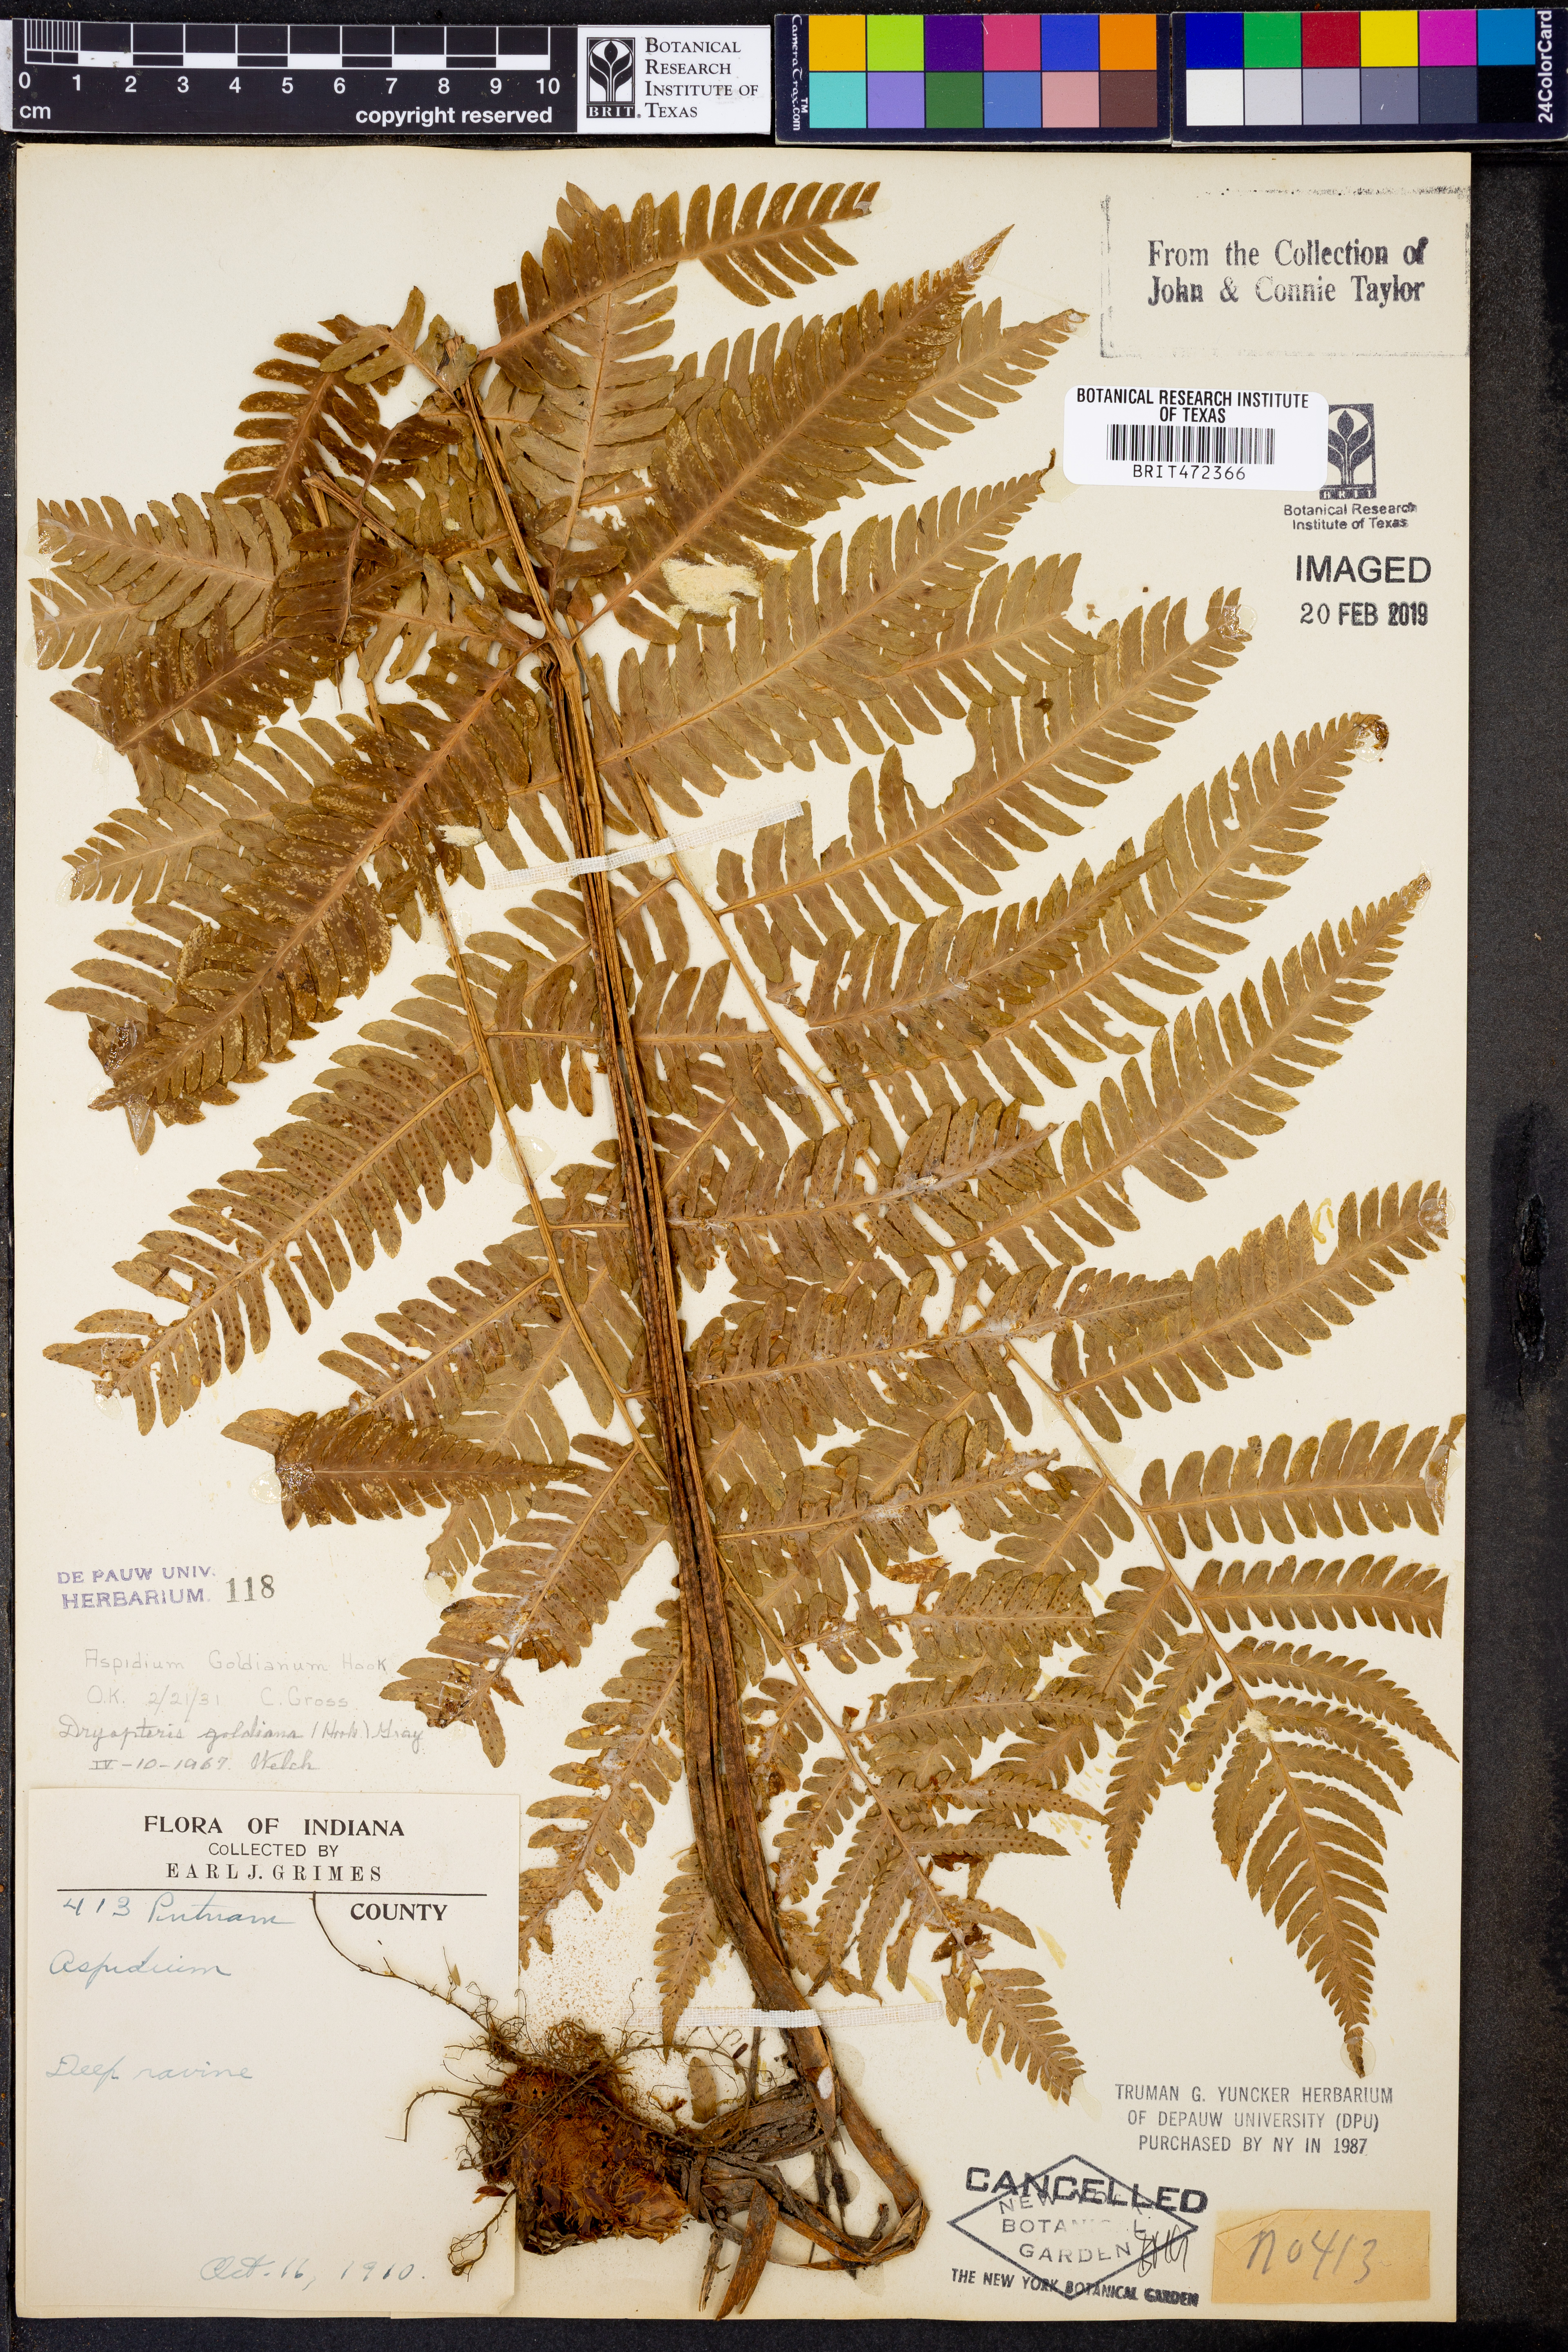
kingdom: Plantae
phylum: Tracheophyta
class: Polypodiopsida
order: Polypodiales
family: Dryopteridaceae
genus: Dryopteris
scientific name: Dryopteris goeldiana
